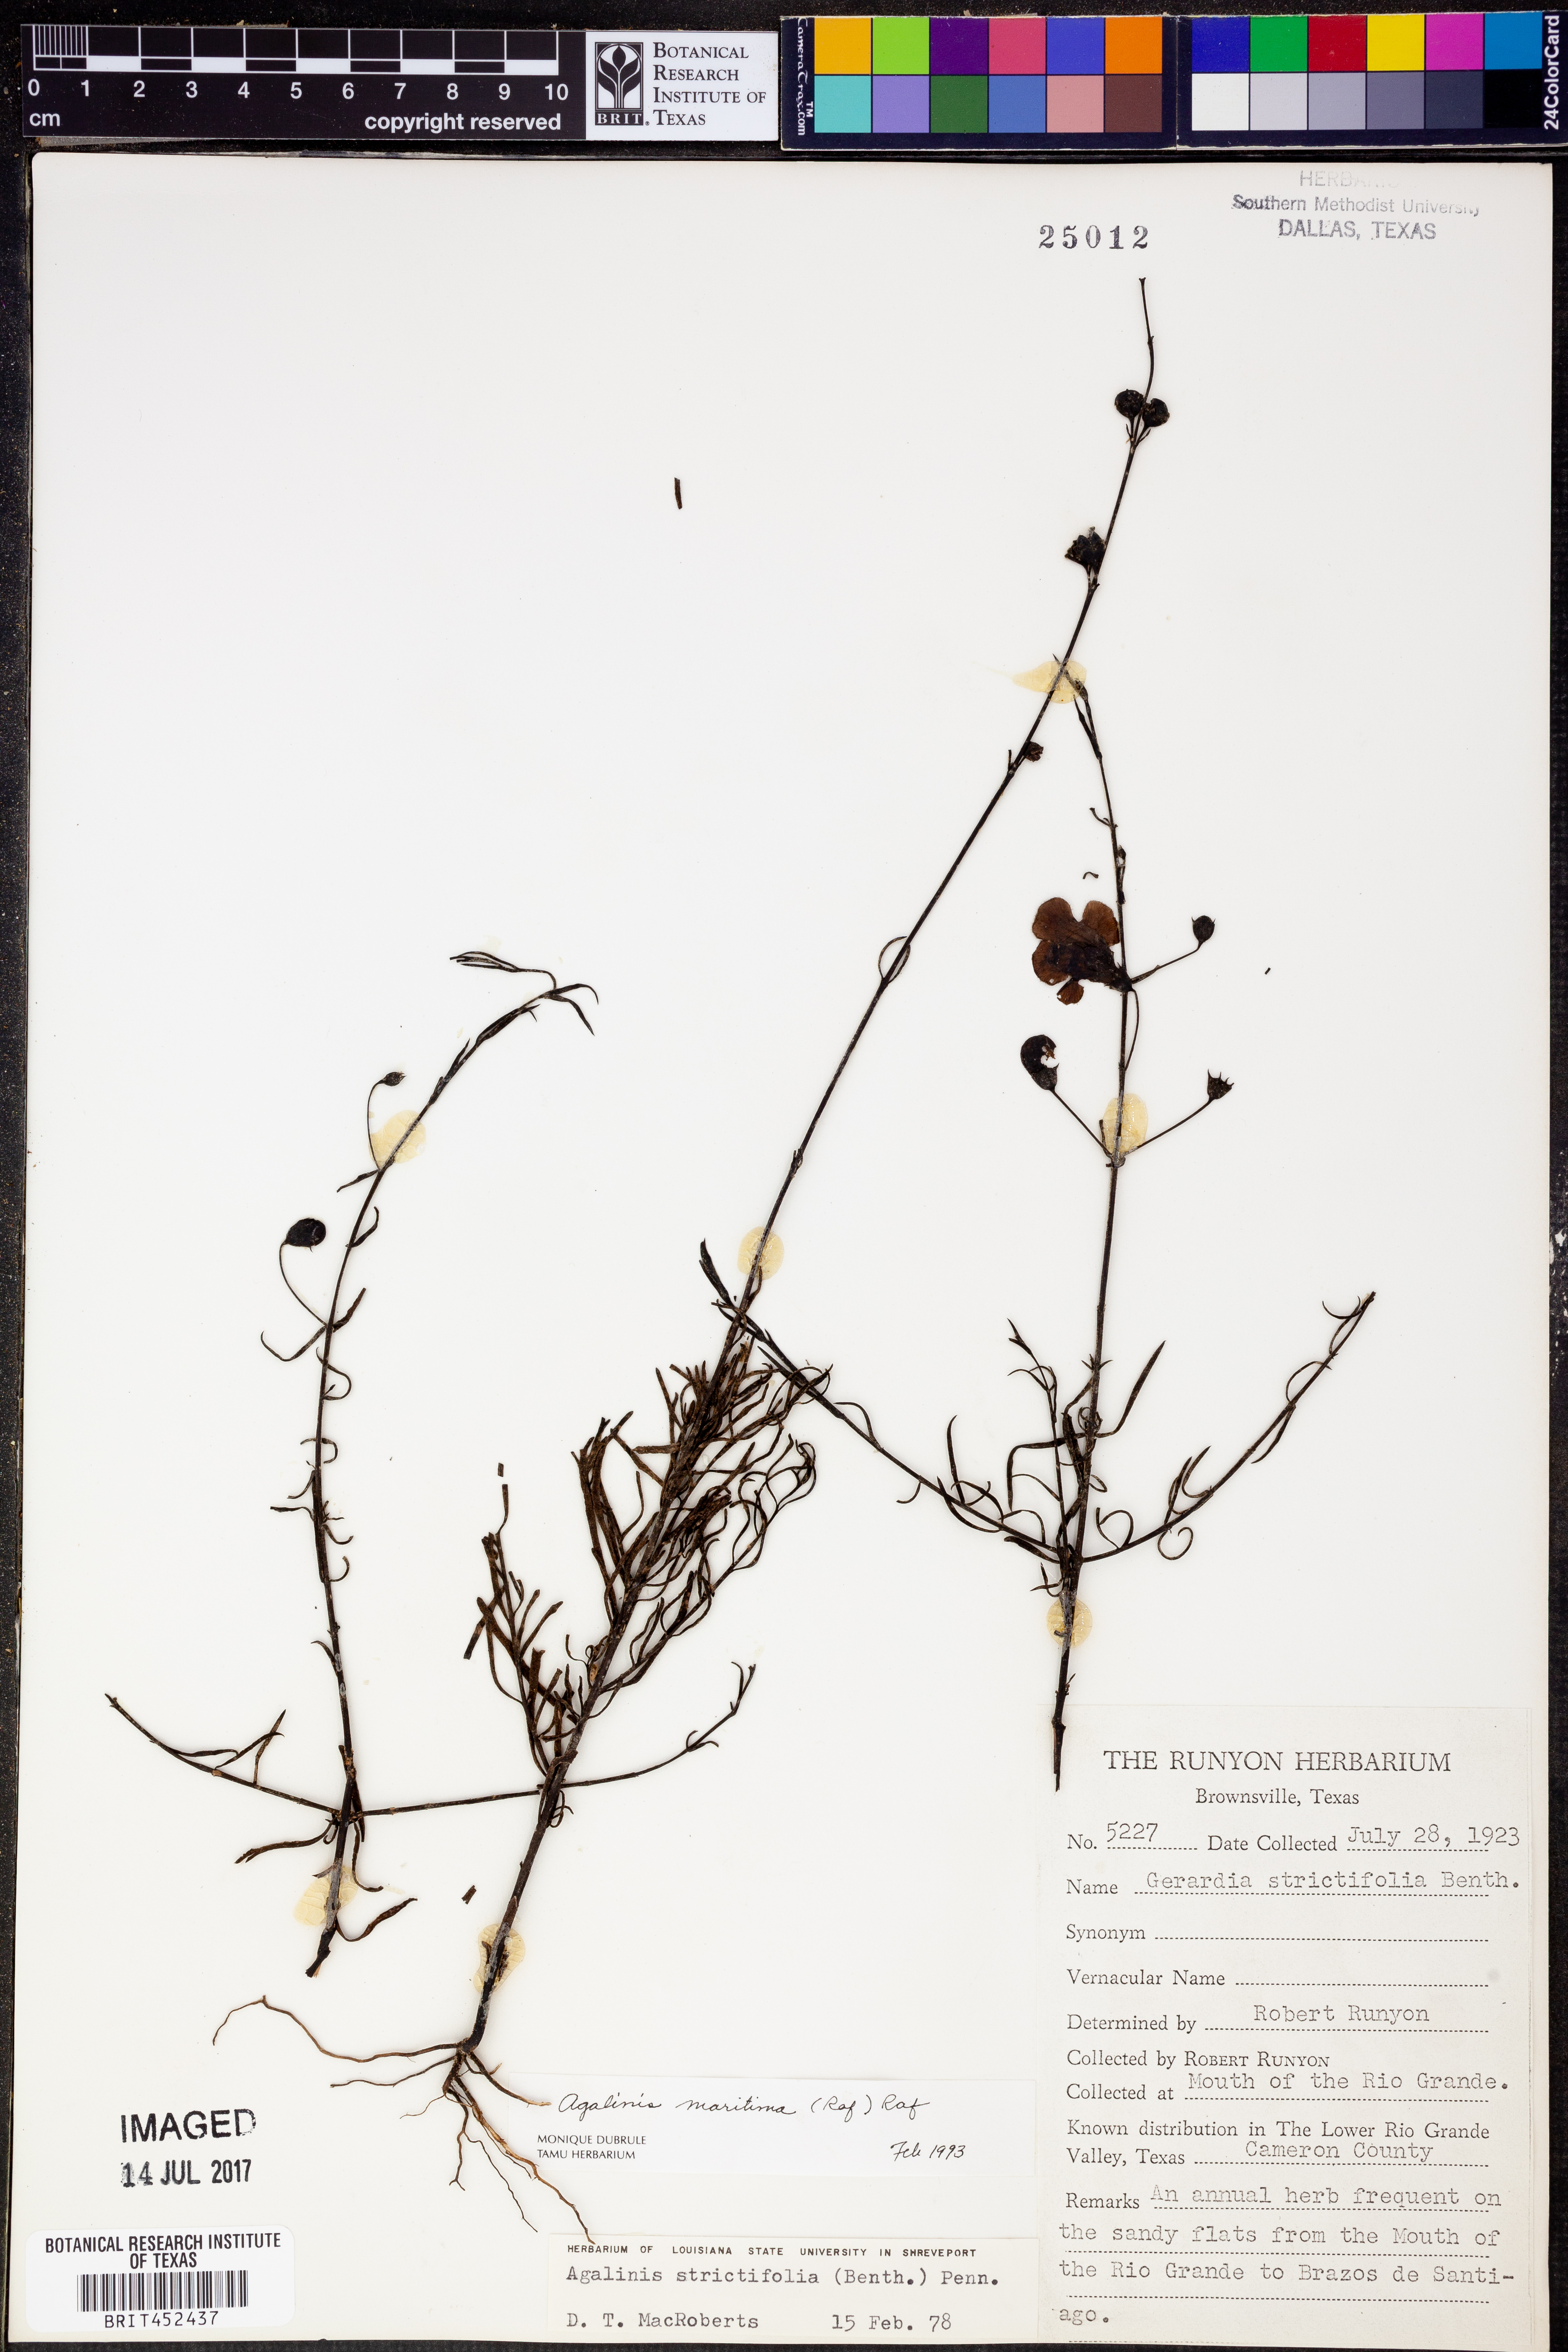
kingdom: Plantae
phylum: Tracheophyta
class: Magnoliopsida
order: Lamiales
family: Orobanchaceae
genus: Agalinis
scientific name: Agalinis maritima
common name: Saltmarsh agalinis
